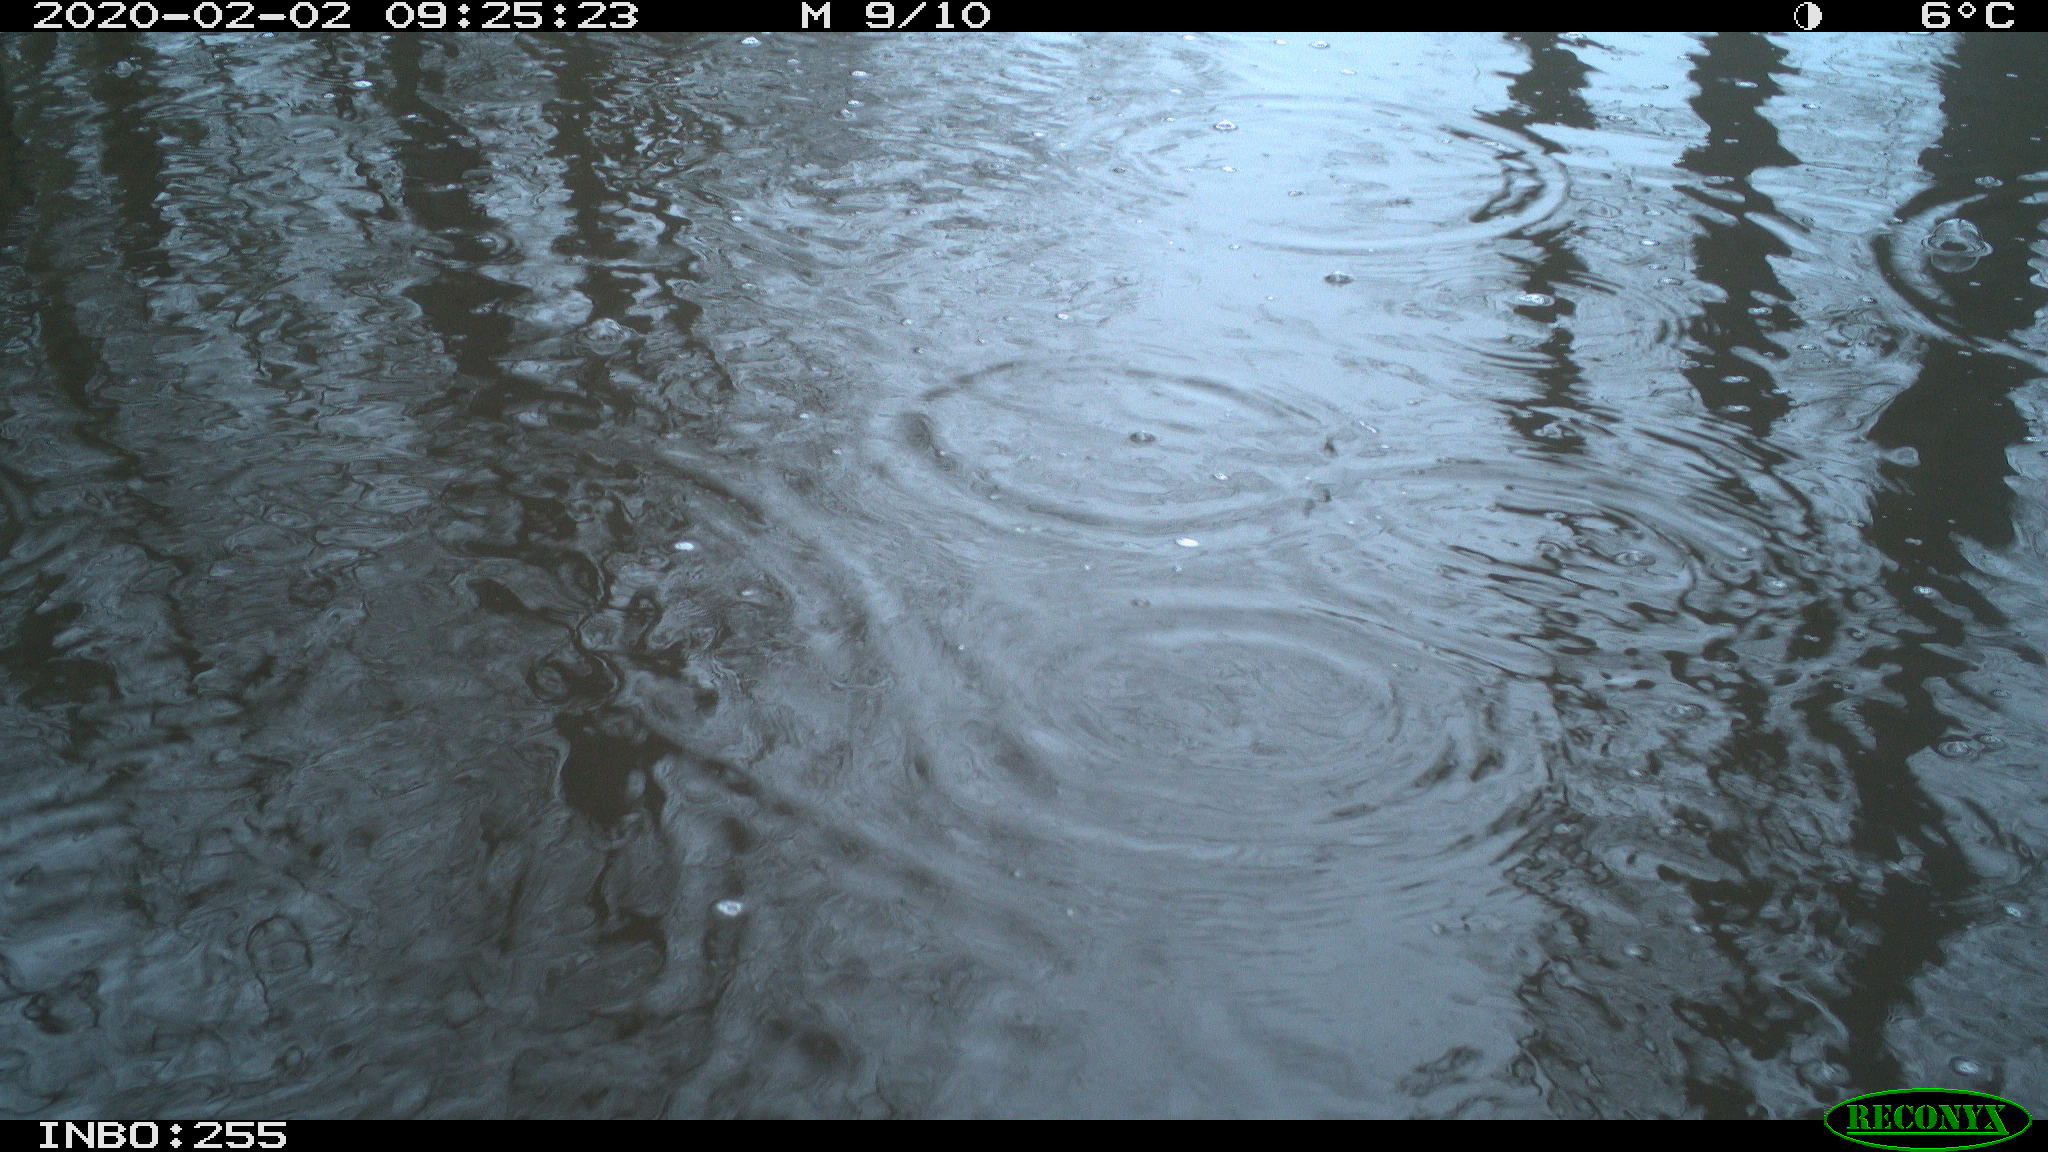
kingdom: Animalia
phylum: Chordata
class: Aves
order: Gruiformes
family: Rallidae
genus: Fulica
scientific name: Fulica atra
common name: Eurasian coot
